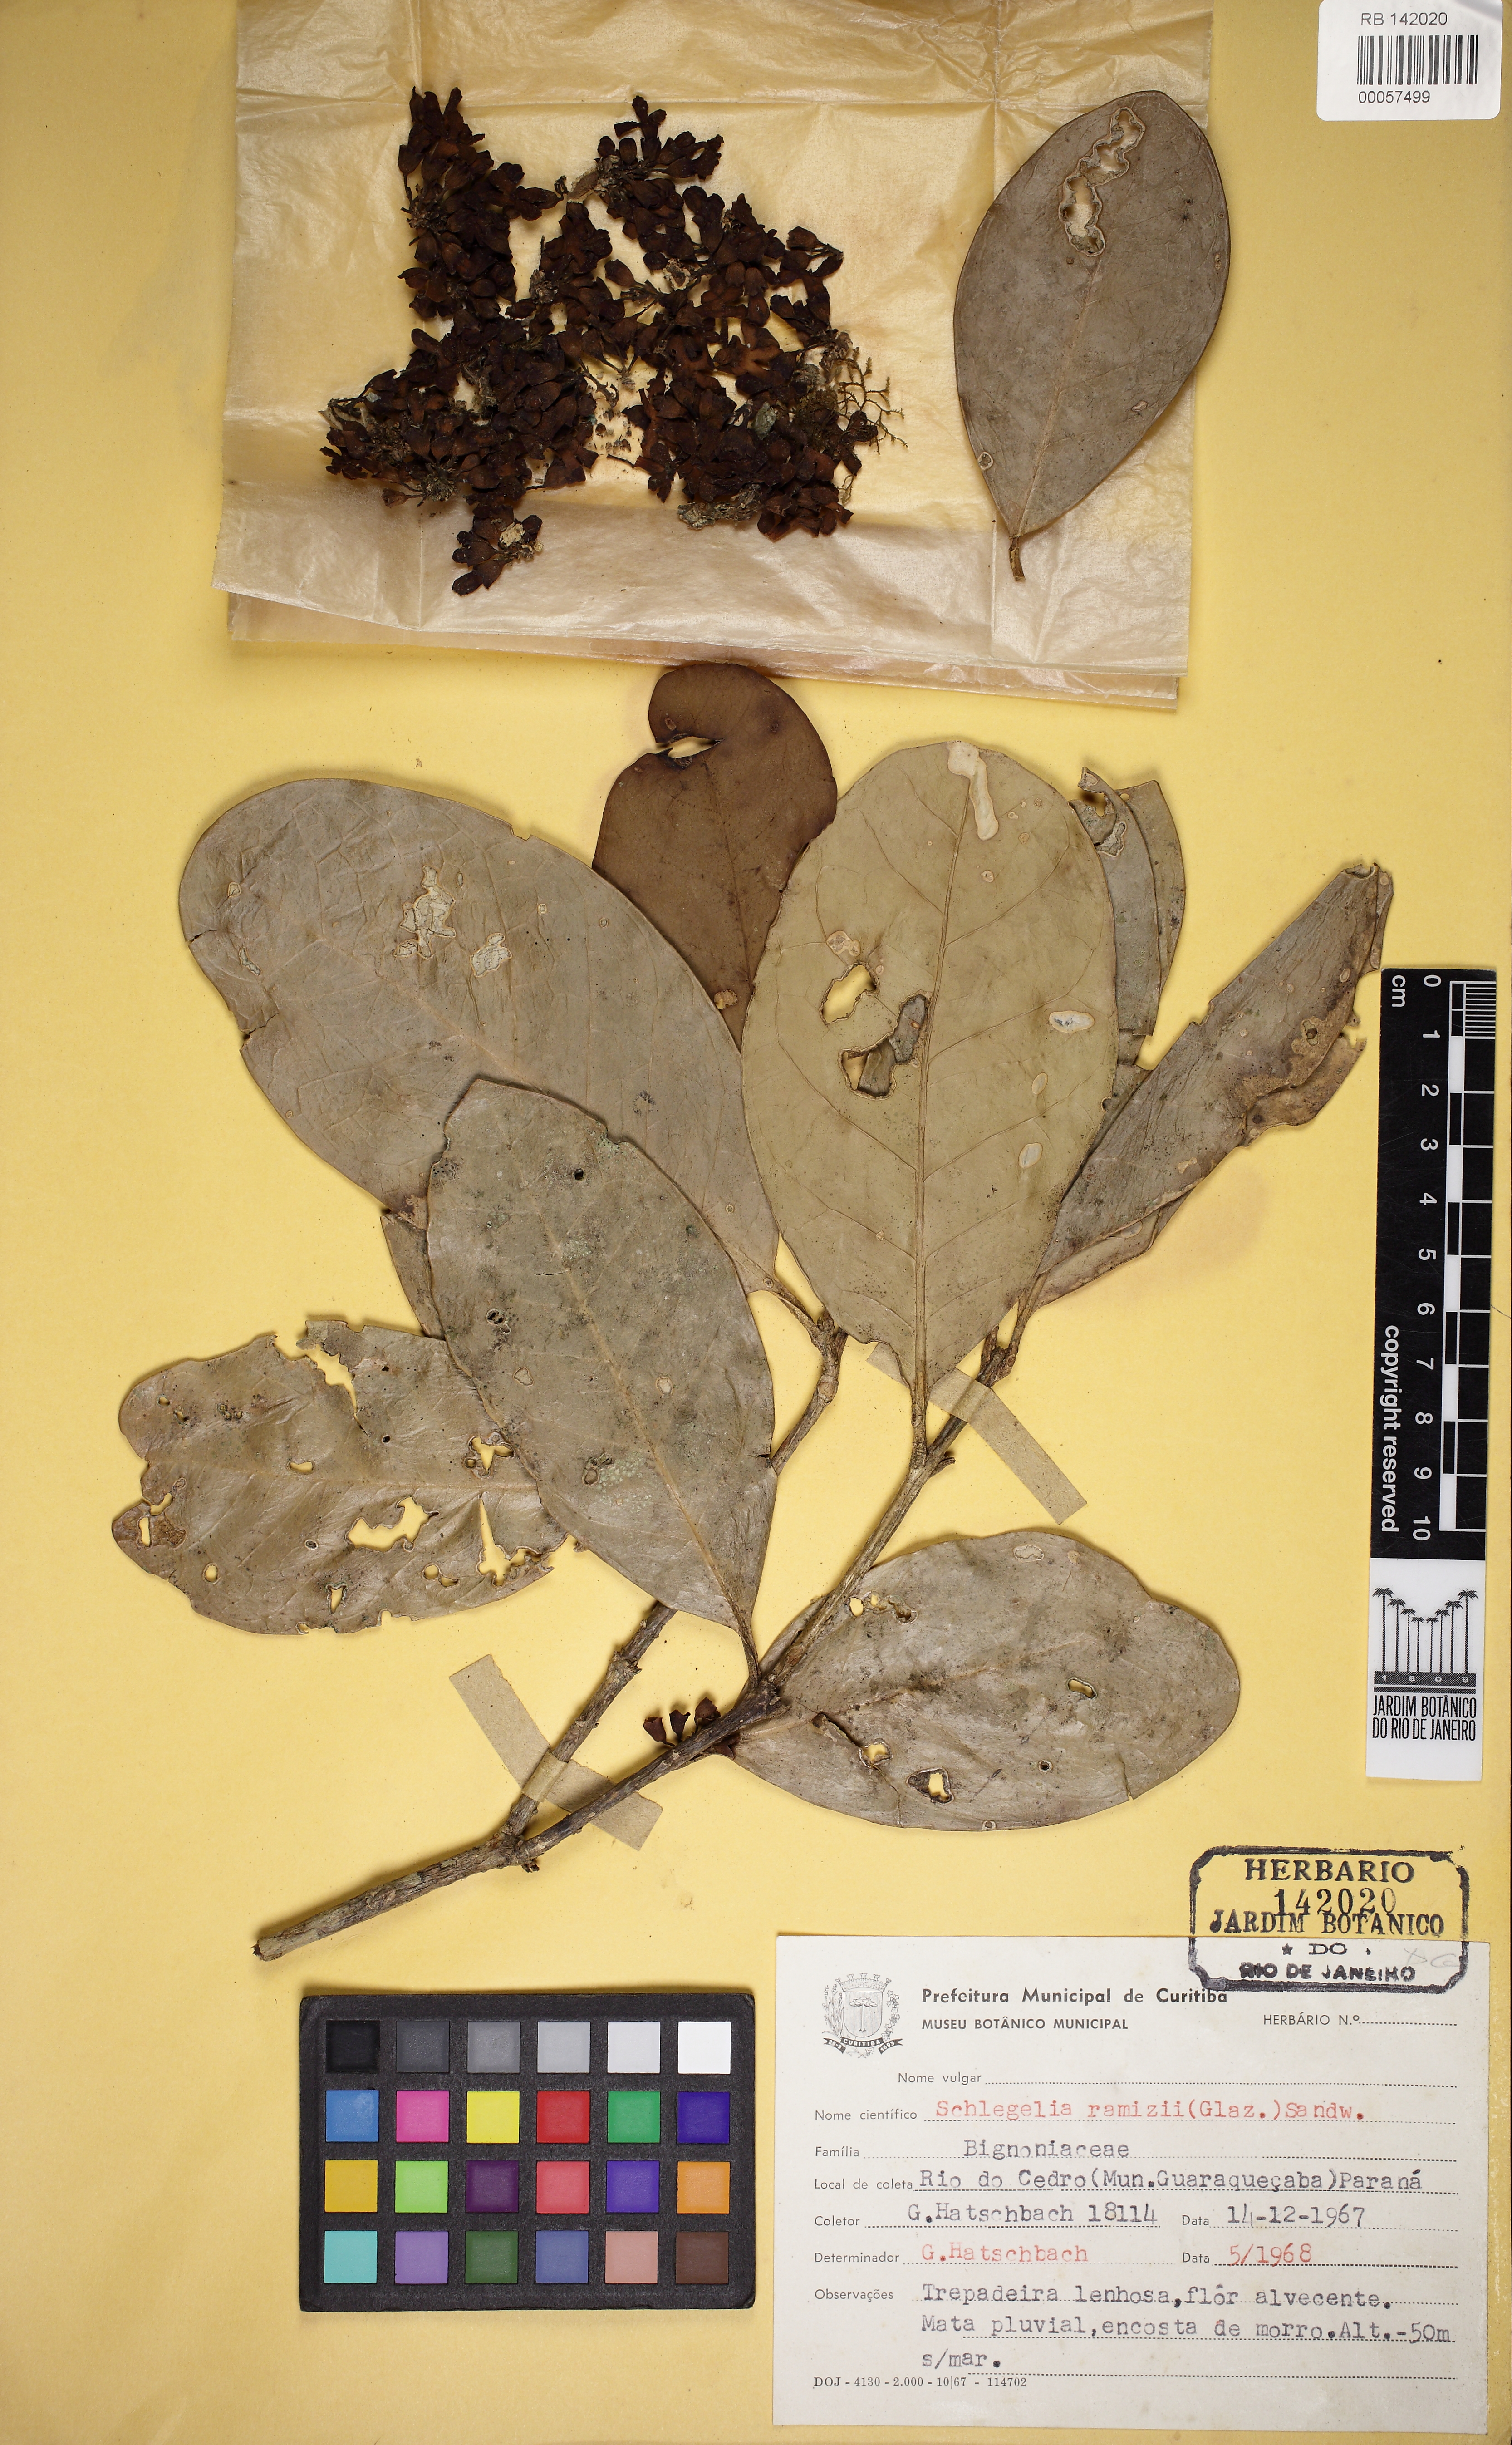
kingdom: Plantae
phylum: Tracheophyta
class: Magnoliopsida
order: Lamiales
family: Schlegeliaceae
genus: Schlegelia
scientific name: Schlegelia parviflora
